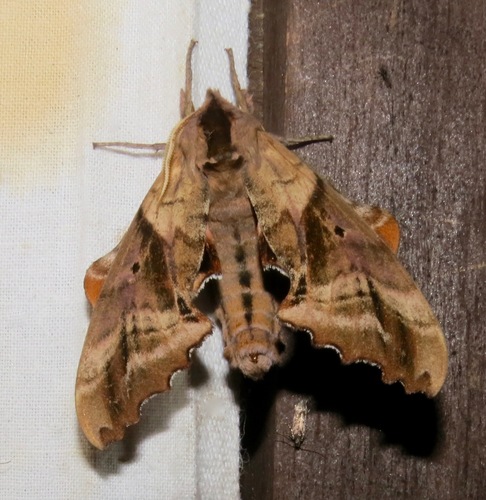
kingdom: Animalia
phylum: Arthropoda
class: Insecta
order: Lepidoptera
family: Sphingidae
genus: Paonias
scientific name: Paonias excaecata
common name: Blind-eyed sphinx
